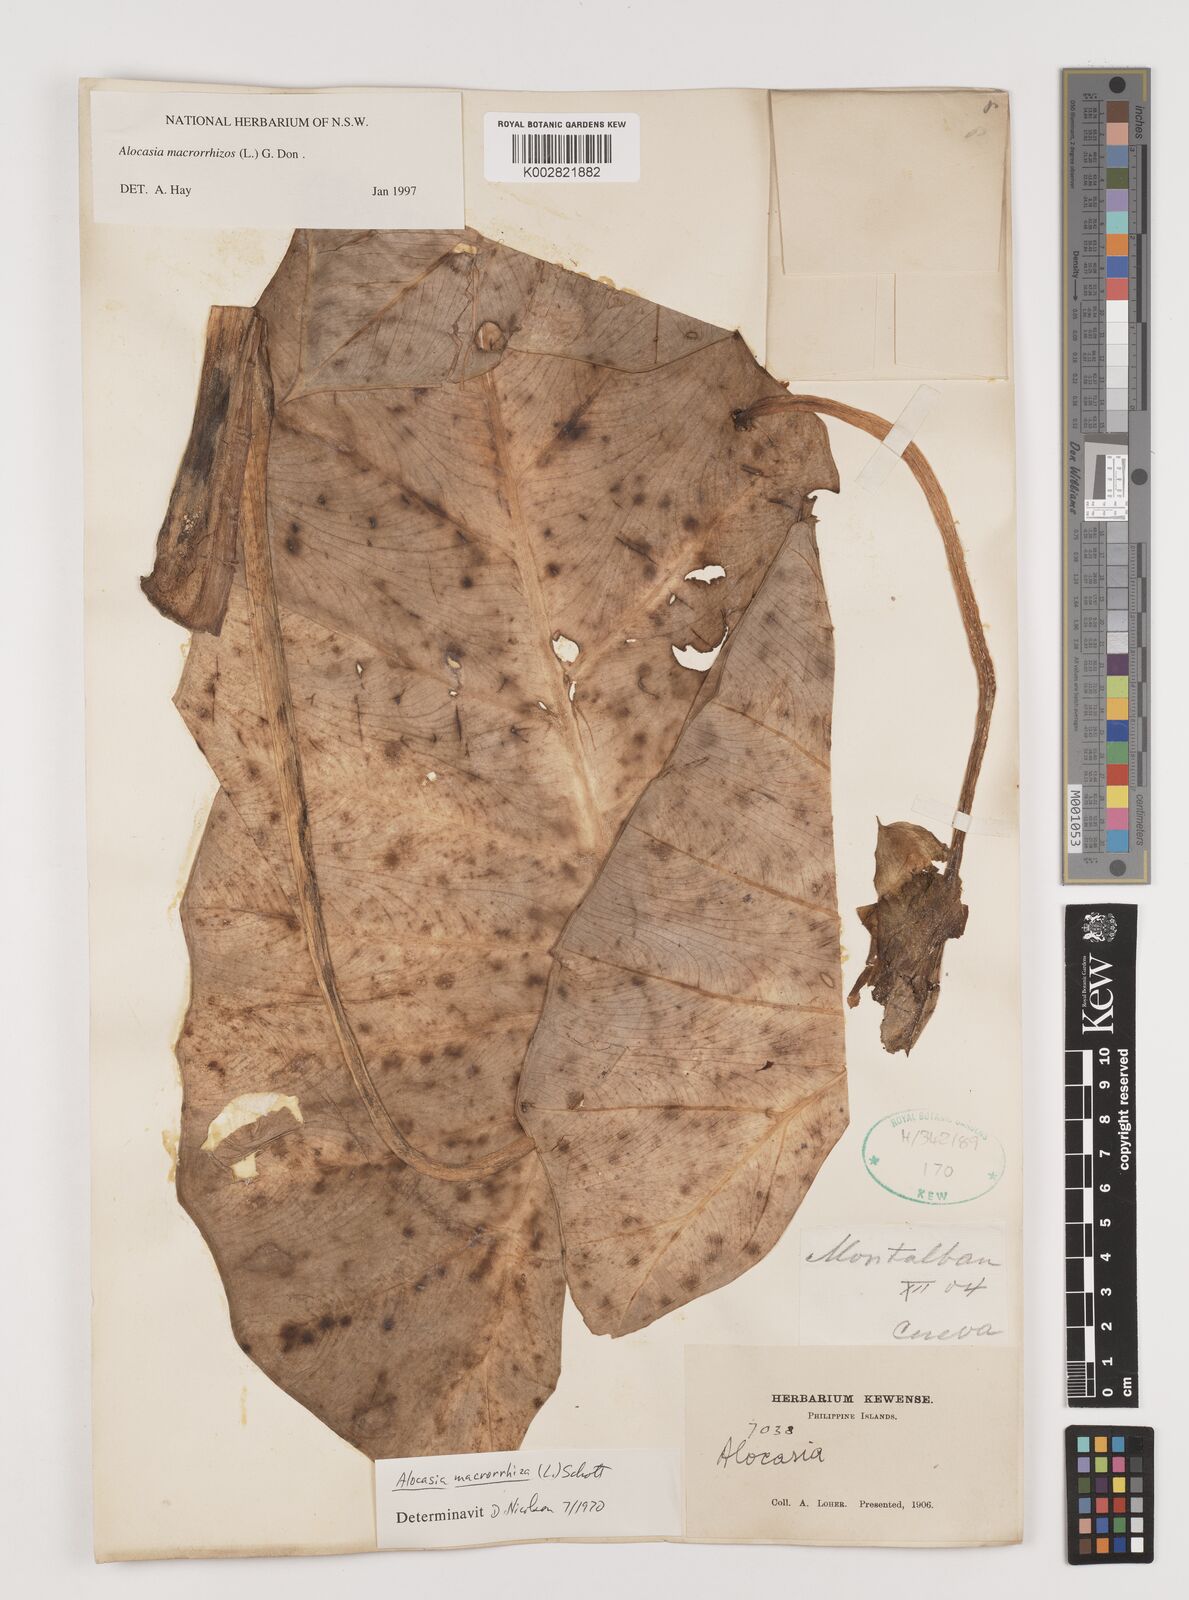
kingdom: Plantae
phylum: Tracheophyta
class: Liliopsida
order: Alismatales
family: Araceae
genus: Alocasia
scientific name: Alocasia macrorrhizos
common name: Giant taro
